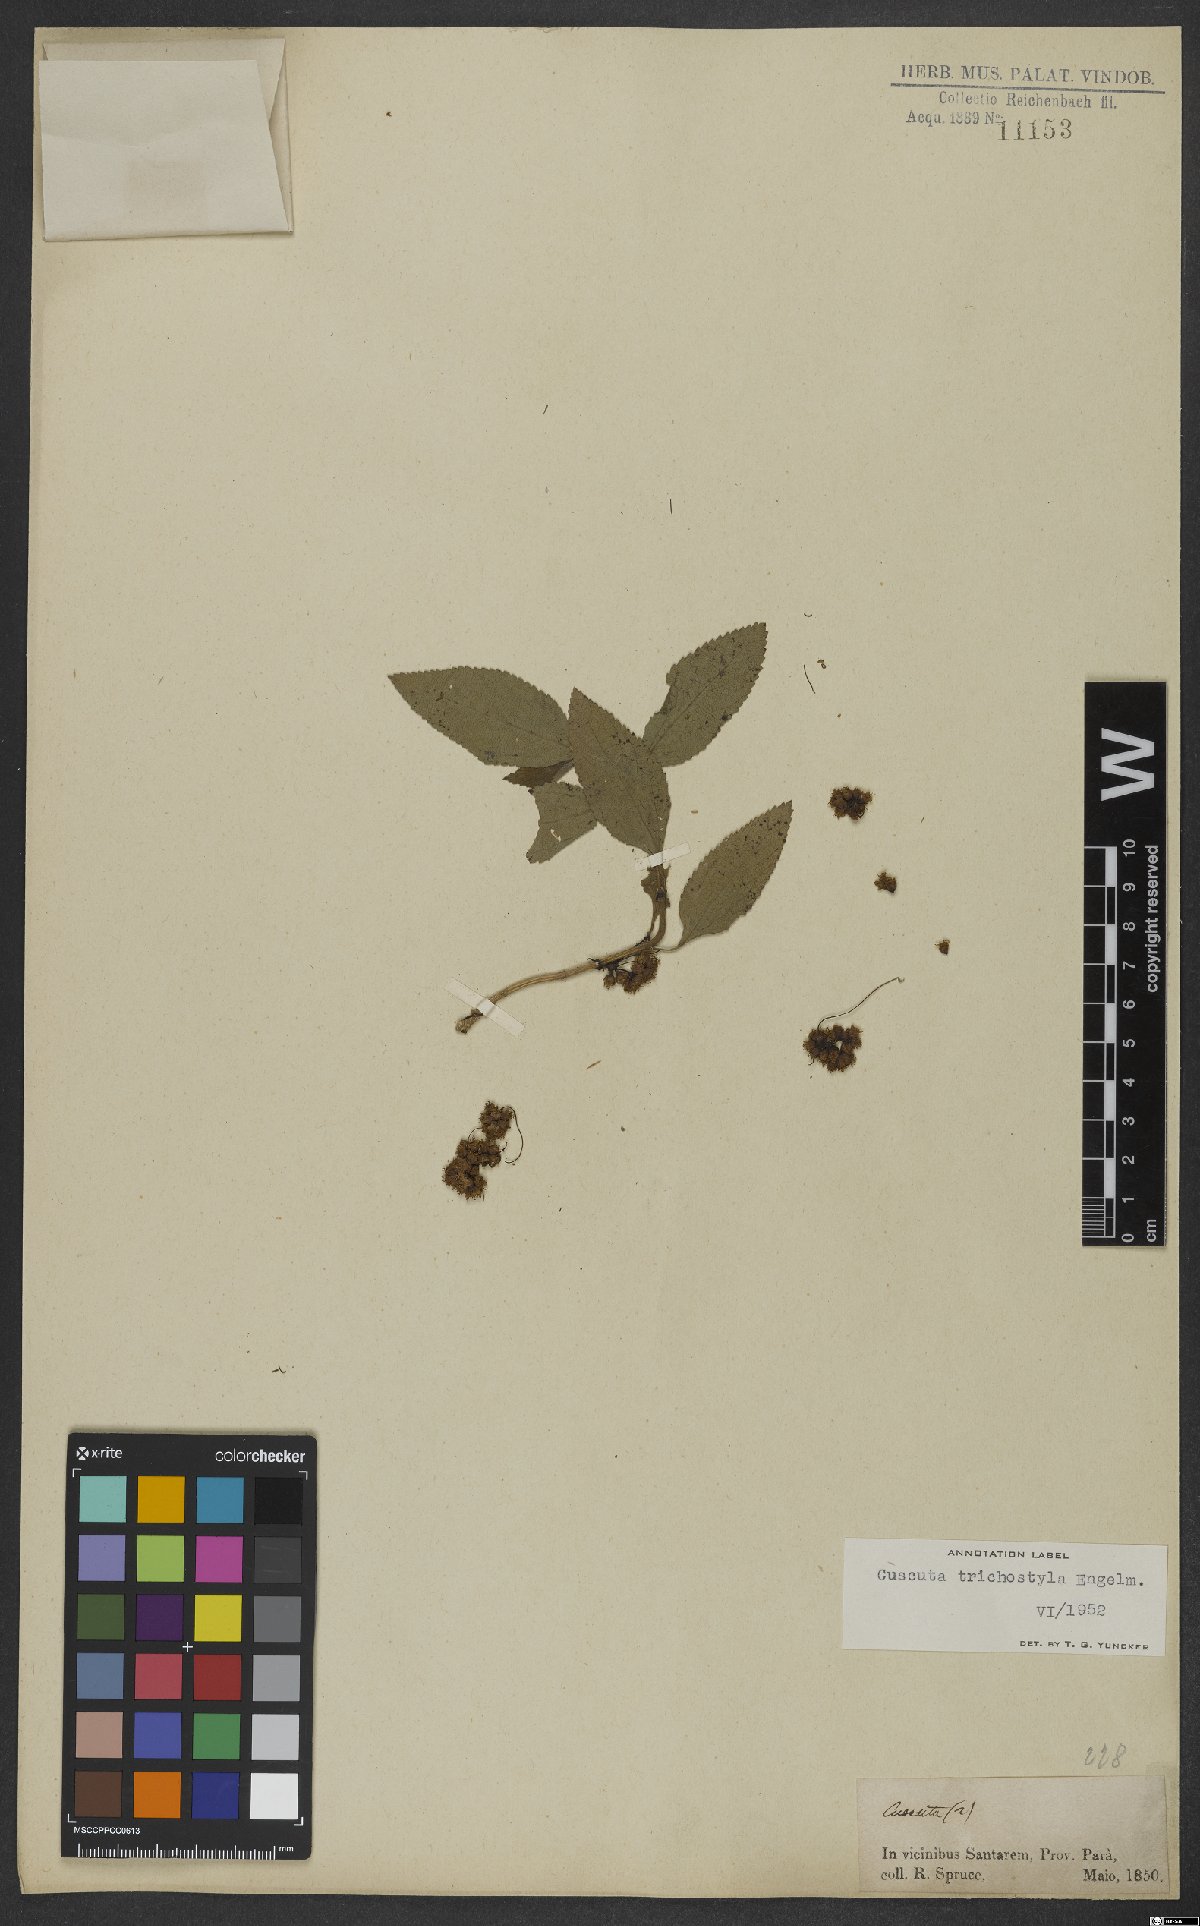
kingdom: Plantae
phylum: Tracheophyta
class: Magnoliopsida
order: Solanales
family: Convolvulaceae
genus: Cuscuta
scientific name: Cuscuta xanthochortos
